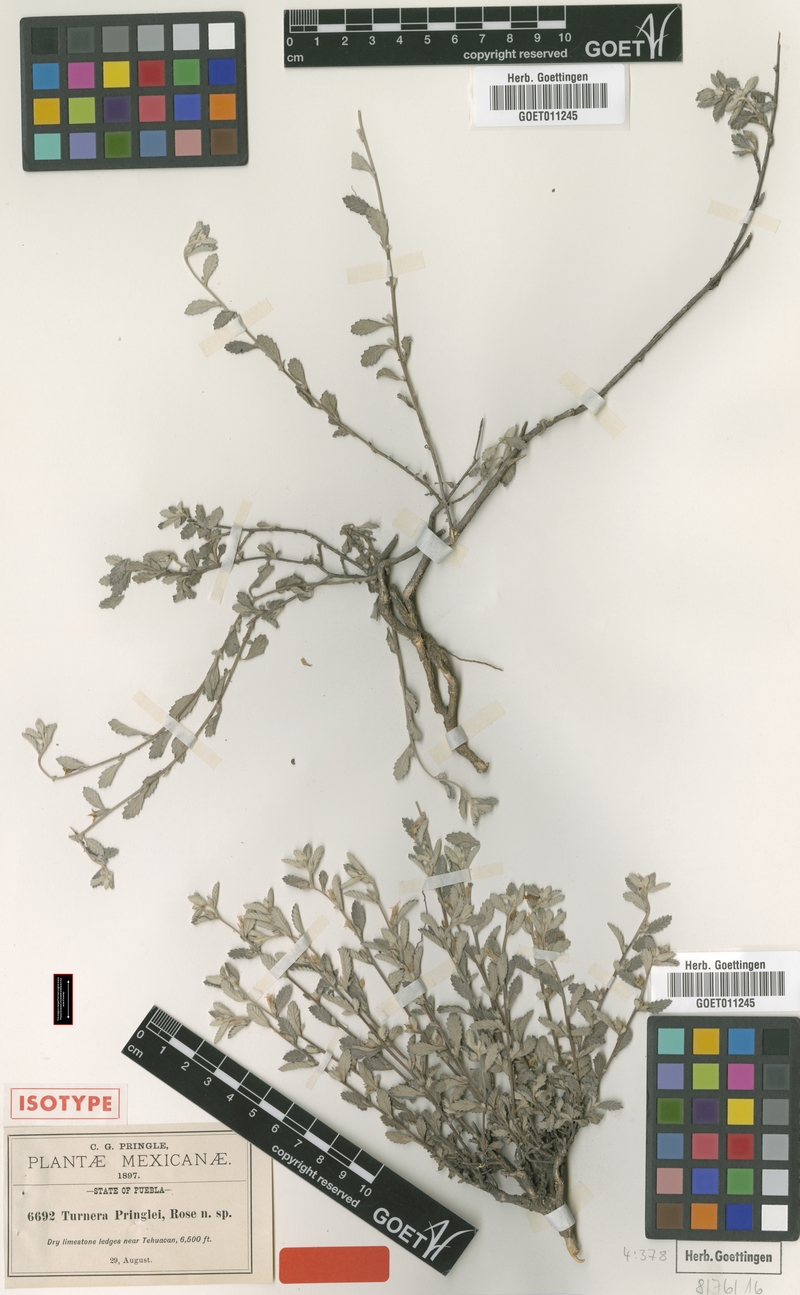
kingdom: Plantae
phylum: Tracheophyta
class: Magnoliopsida
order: Malpighiales
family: Turneraceae
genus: Turnera
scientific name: Turnera diffusa
